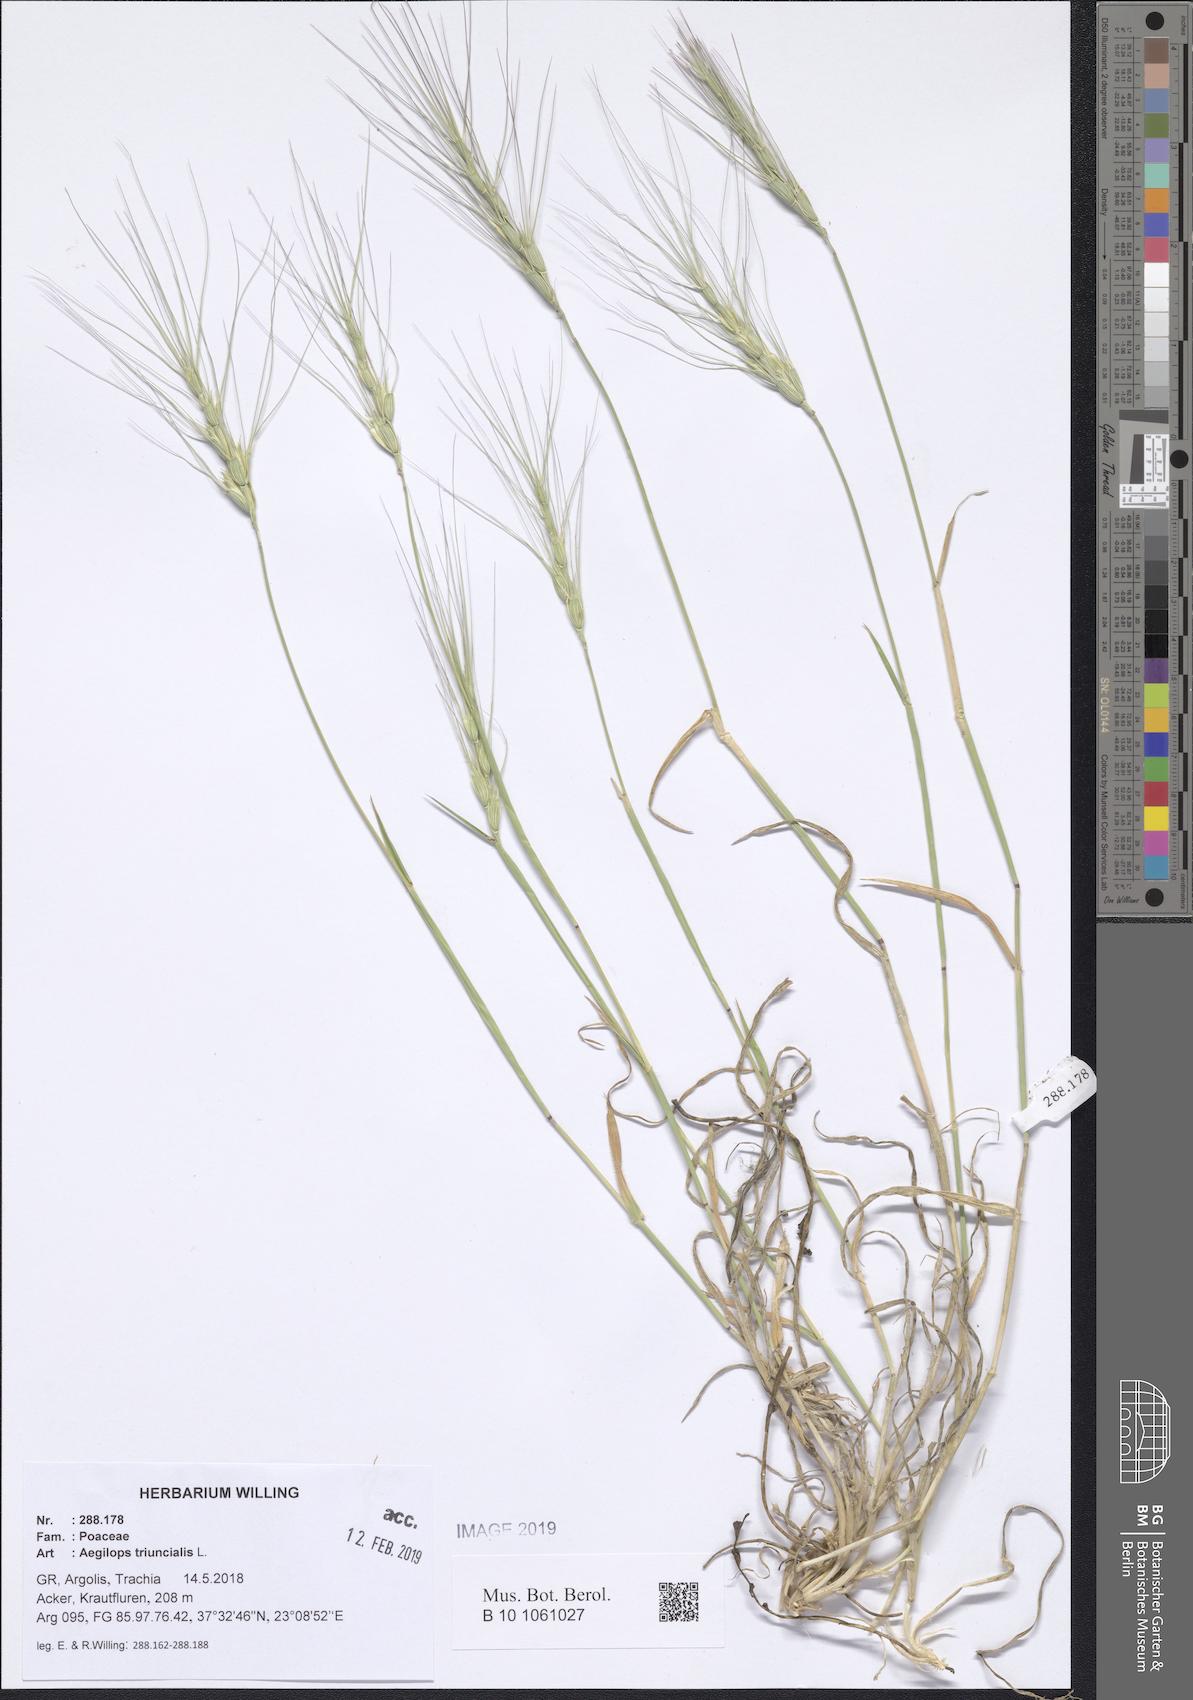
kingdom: Plantae
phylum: Tracheophyta
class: Liliopsida
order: Poales
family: Poaceae
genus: Aegilops
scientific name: Aegilops triuncialis
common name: Barb goat grass
